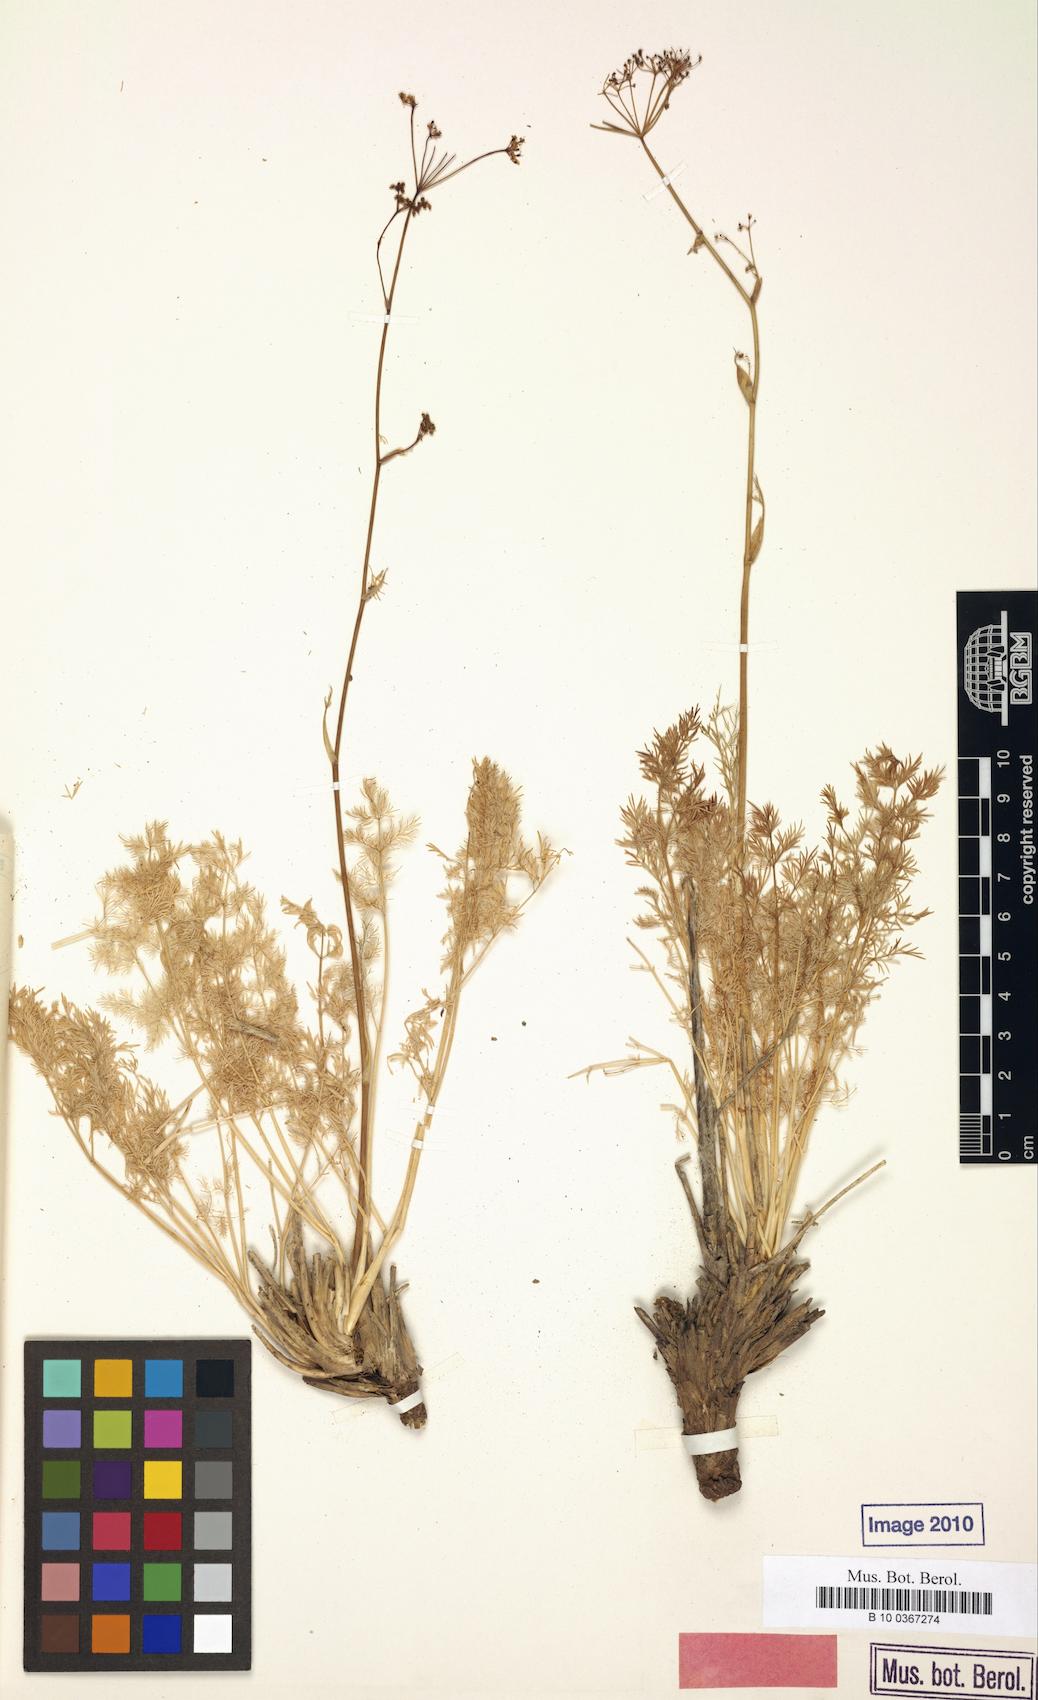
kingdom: Plantae
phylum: Tracheophyta
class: Magnoliopsida
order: Apiales
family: Apiaceae
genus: Ferula
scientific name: Ferula nuratavica
